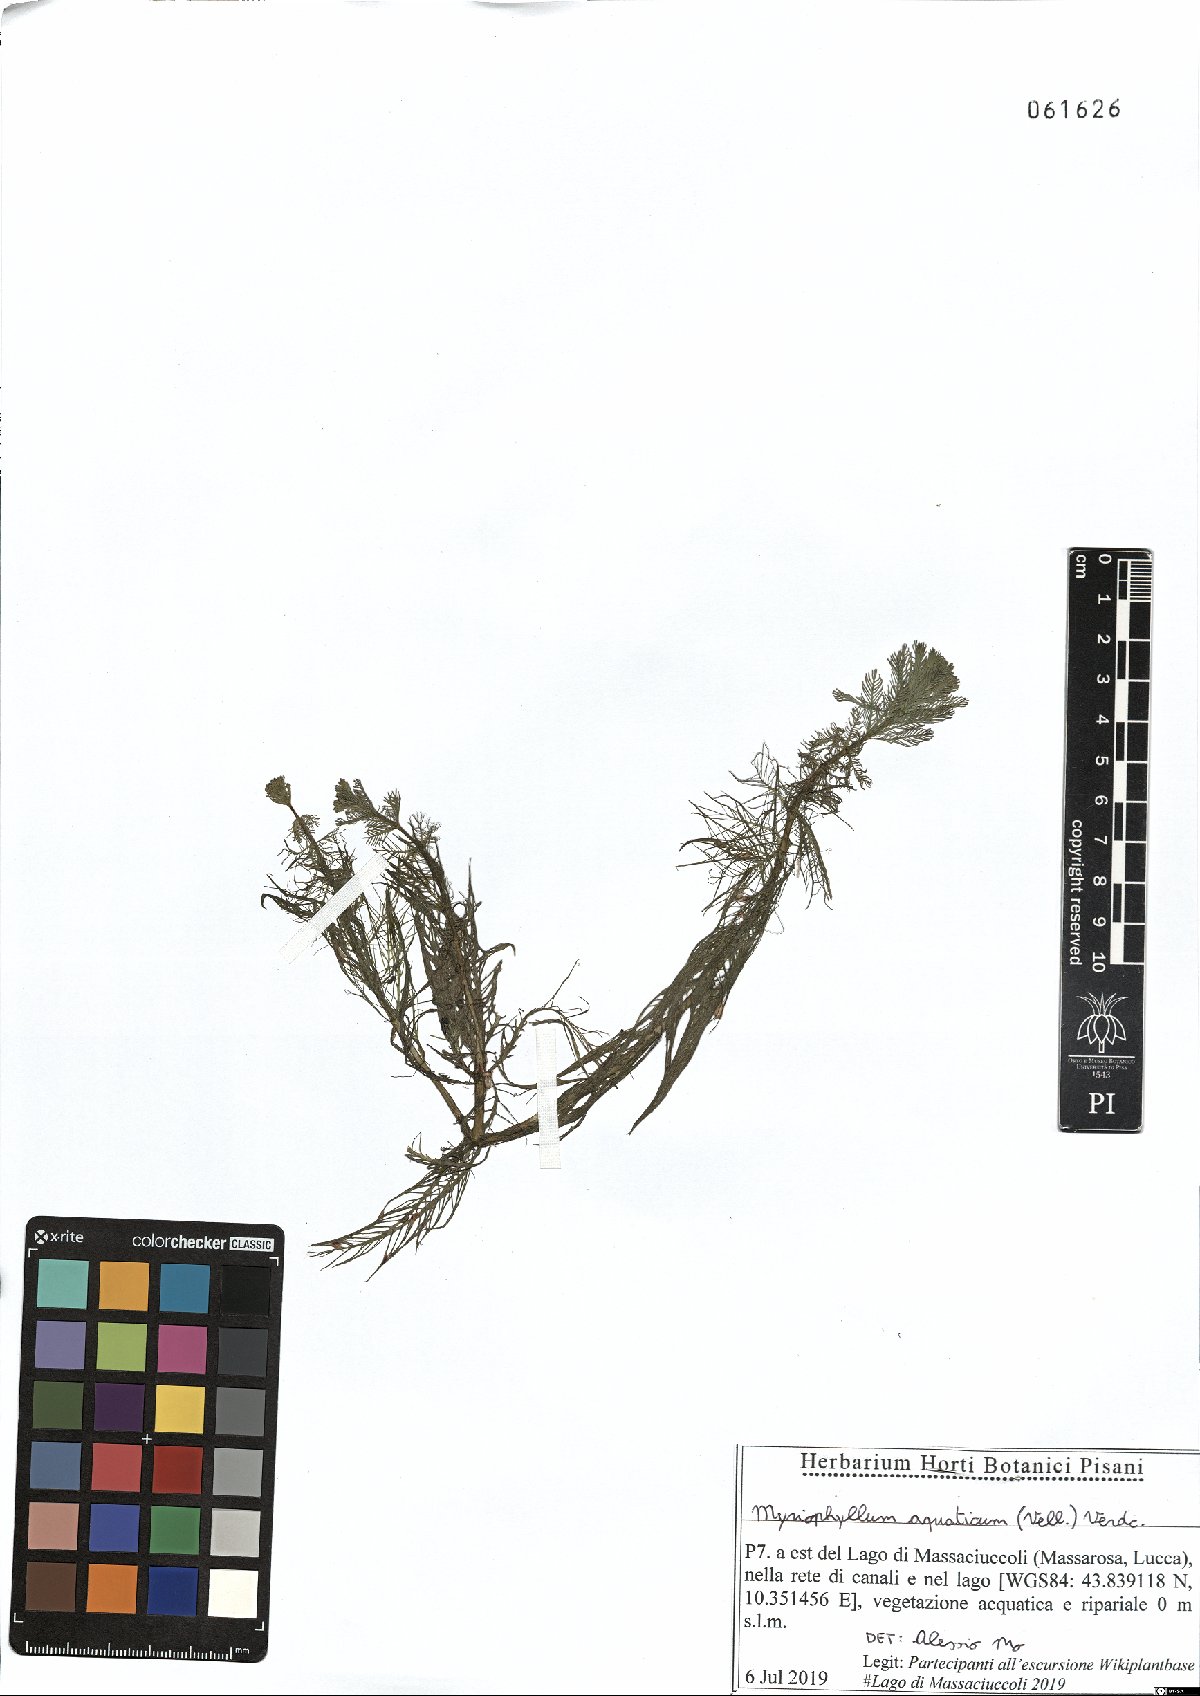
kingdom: Plantae
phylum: Tracheophyta
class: Magnoliopsida
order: Saxifragales
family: Haloragaceae
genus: Myriophyllum
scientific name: Myriophyllum aquaticum
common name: Parrot's feather
